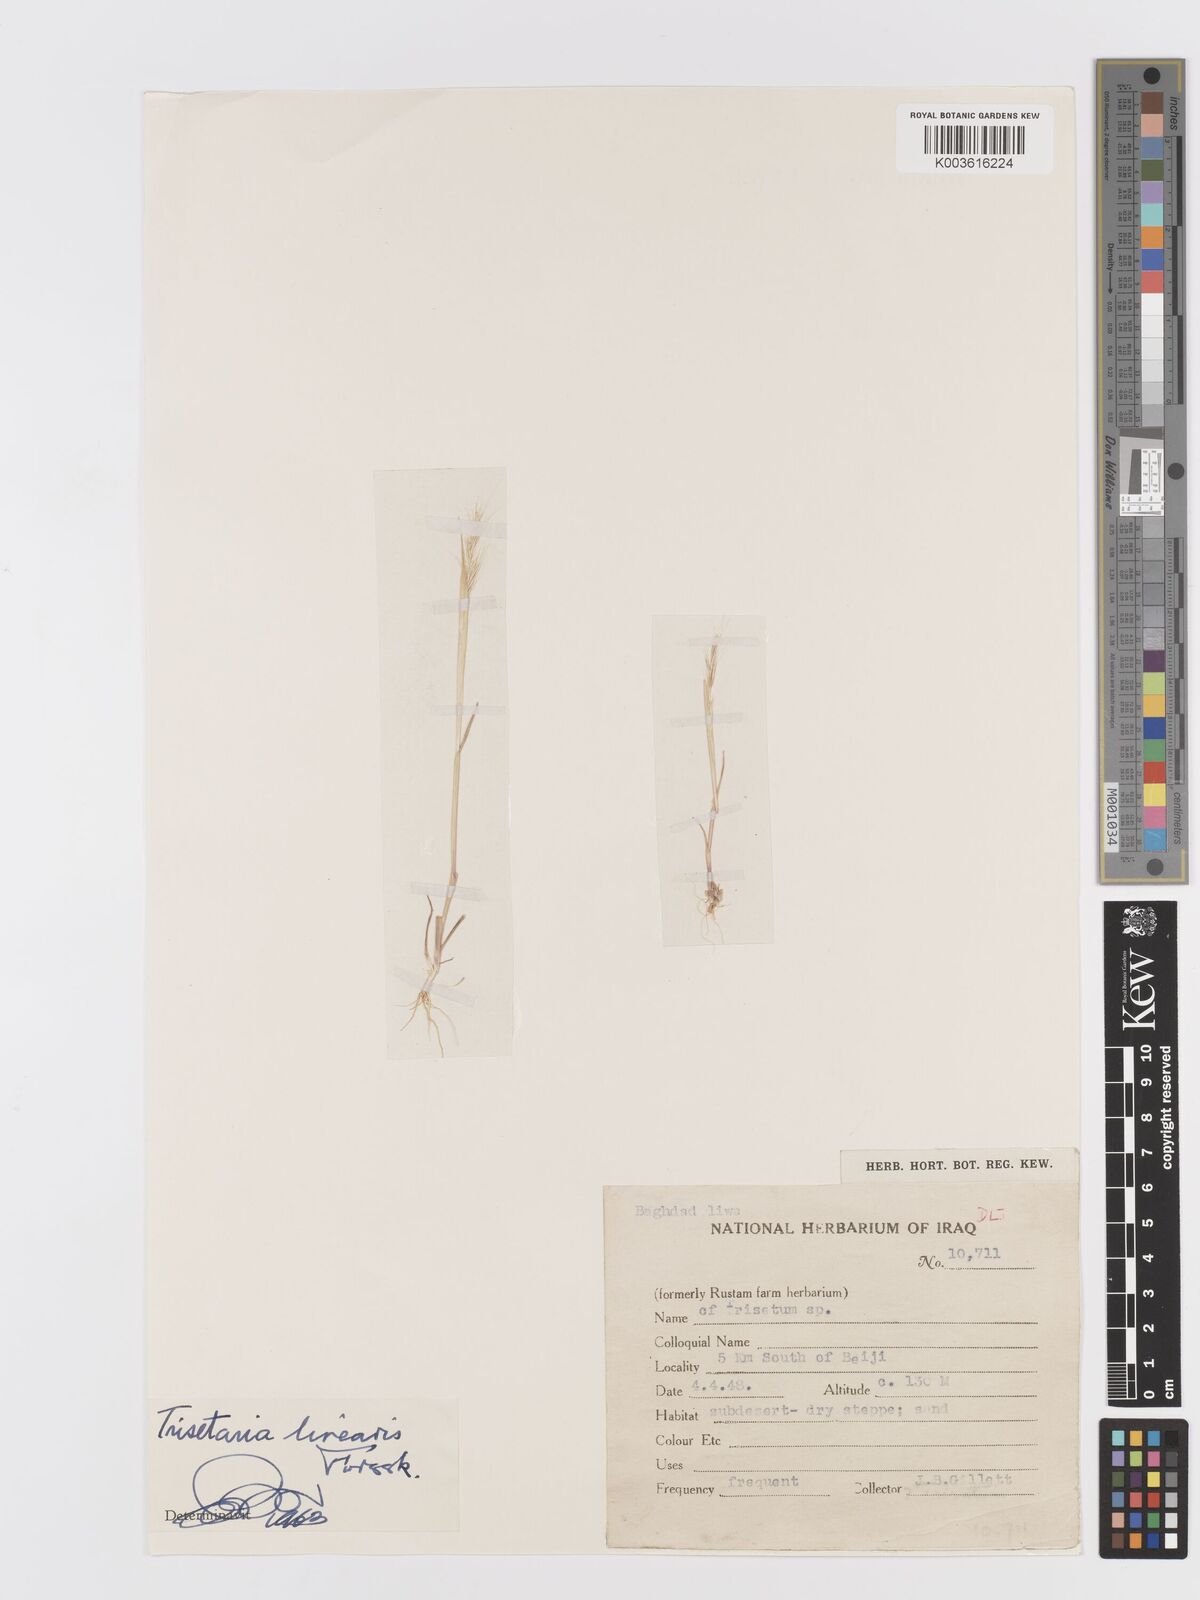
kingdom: Plantae
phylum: Tracheophyta
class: Liliopsida
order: Poales
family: Poaceae
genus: Trisetaria
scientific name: Trisetaria linearis
